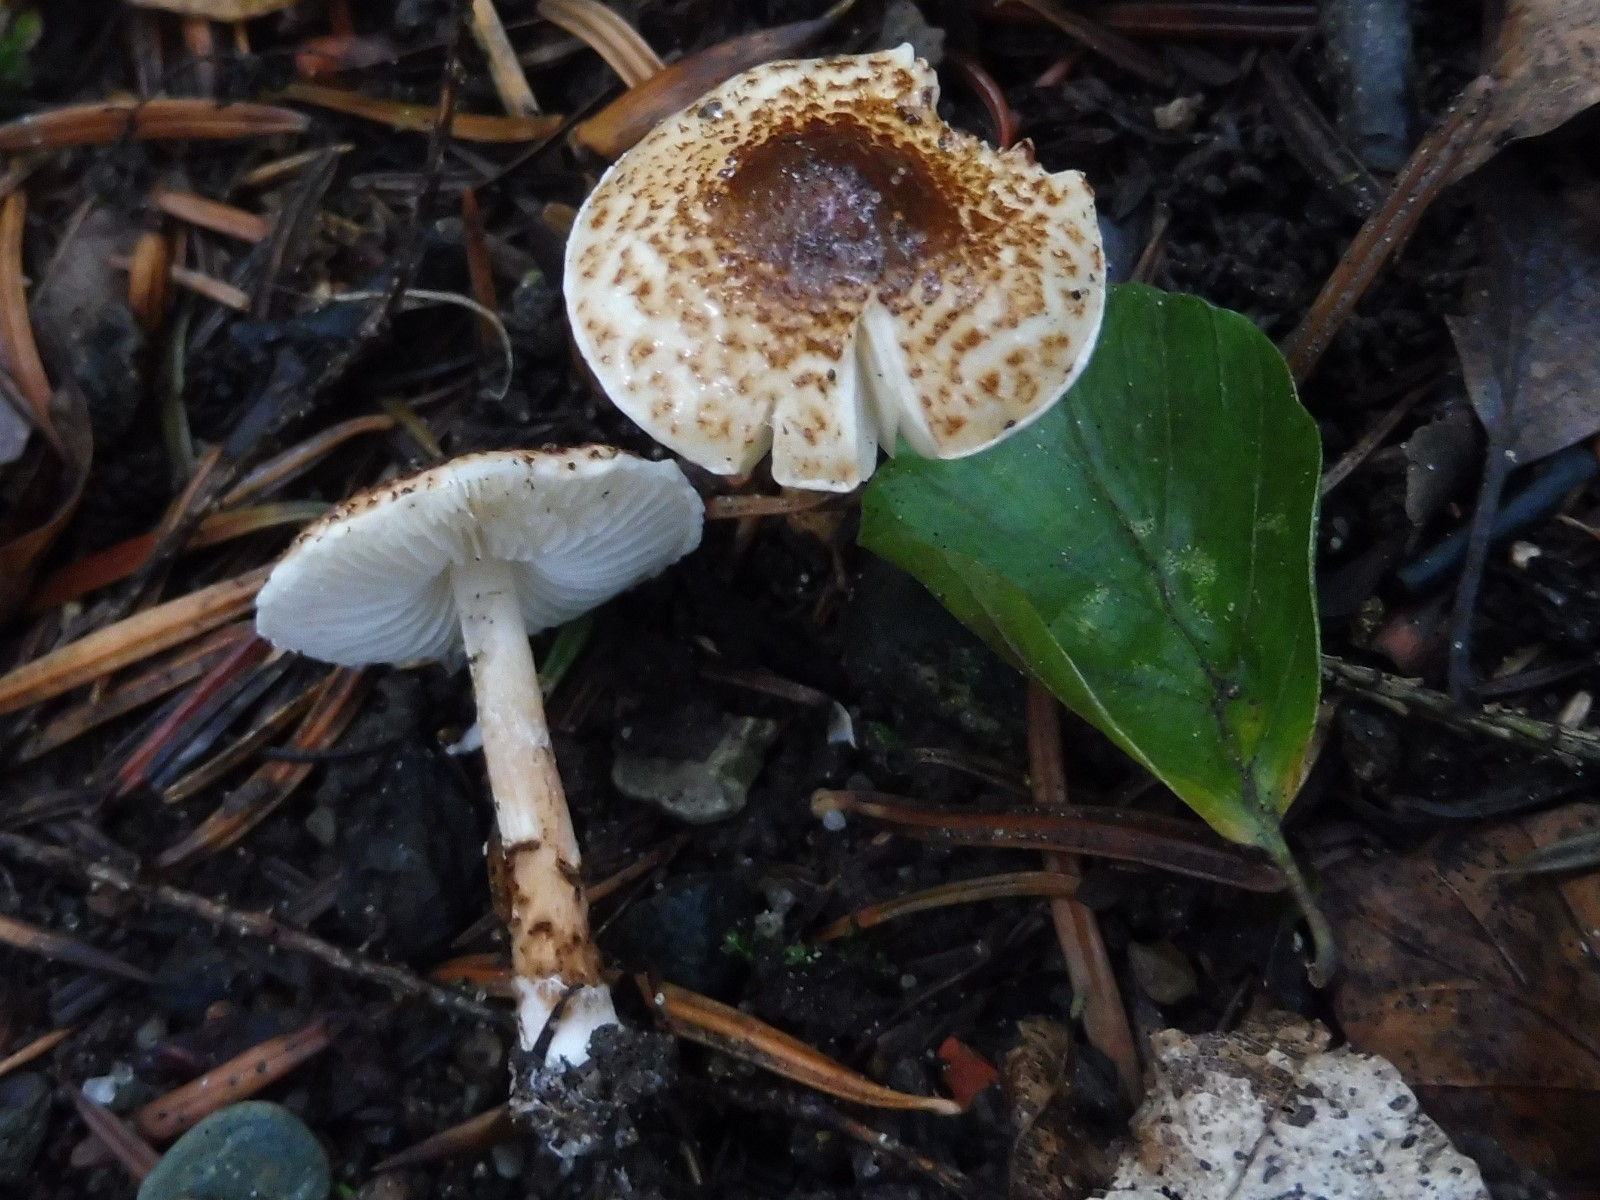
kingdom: Fungi
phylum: Basidiomycota
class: Agaricomycetes
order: Agaricales
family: Agaricaceae
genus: Lepiota
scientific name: Lepiota castanea
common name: kastaniebrun parasolhat
